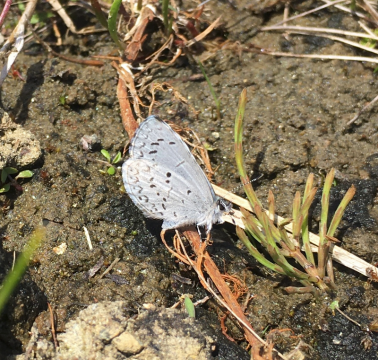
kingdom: Animalia
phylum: Arthropoda
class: Insecta
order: Lepidoptera
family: Lycaenidae
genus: Celastrina
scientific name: Celastrina lucia
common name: Northern Spring Azure
